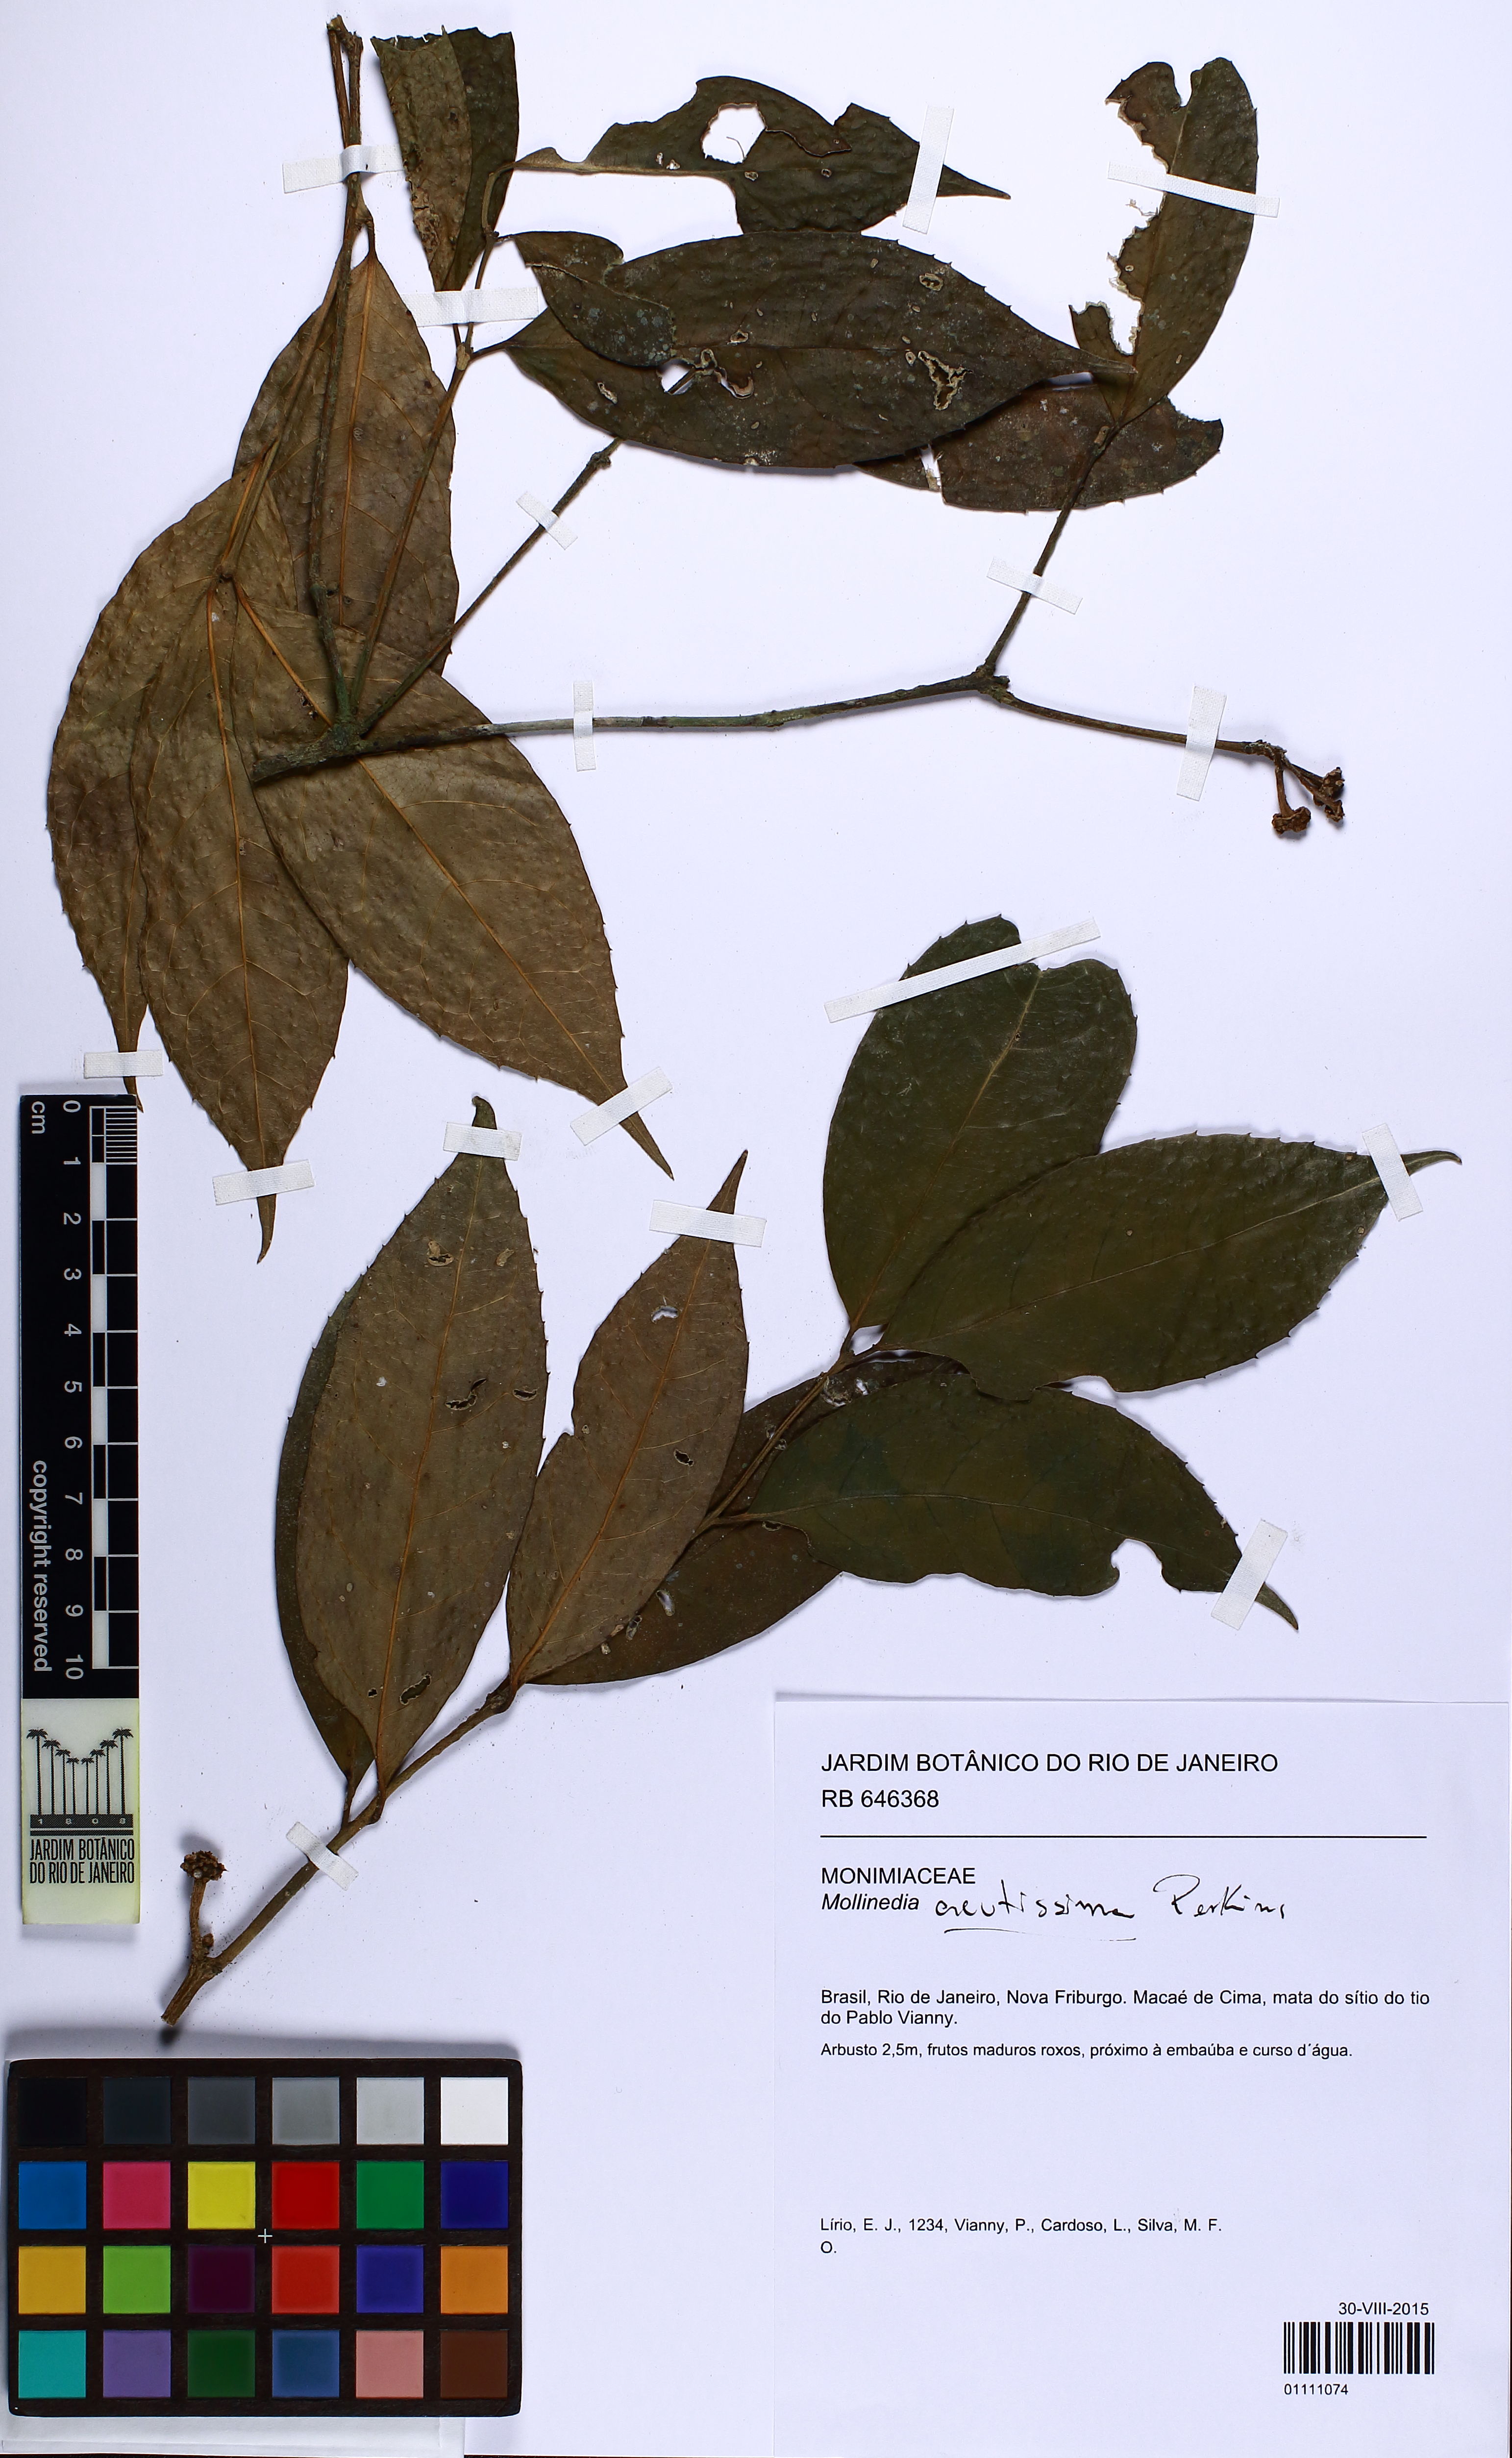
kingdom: Plantae
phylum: Tracheophyta
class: Magnoliopsida
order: Laurales
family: Monimiaceae
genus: Mollinedia
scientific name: Mollinedia elliptica
